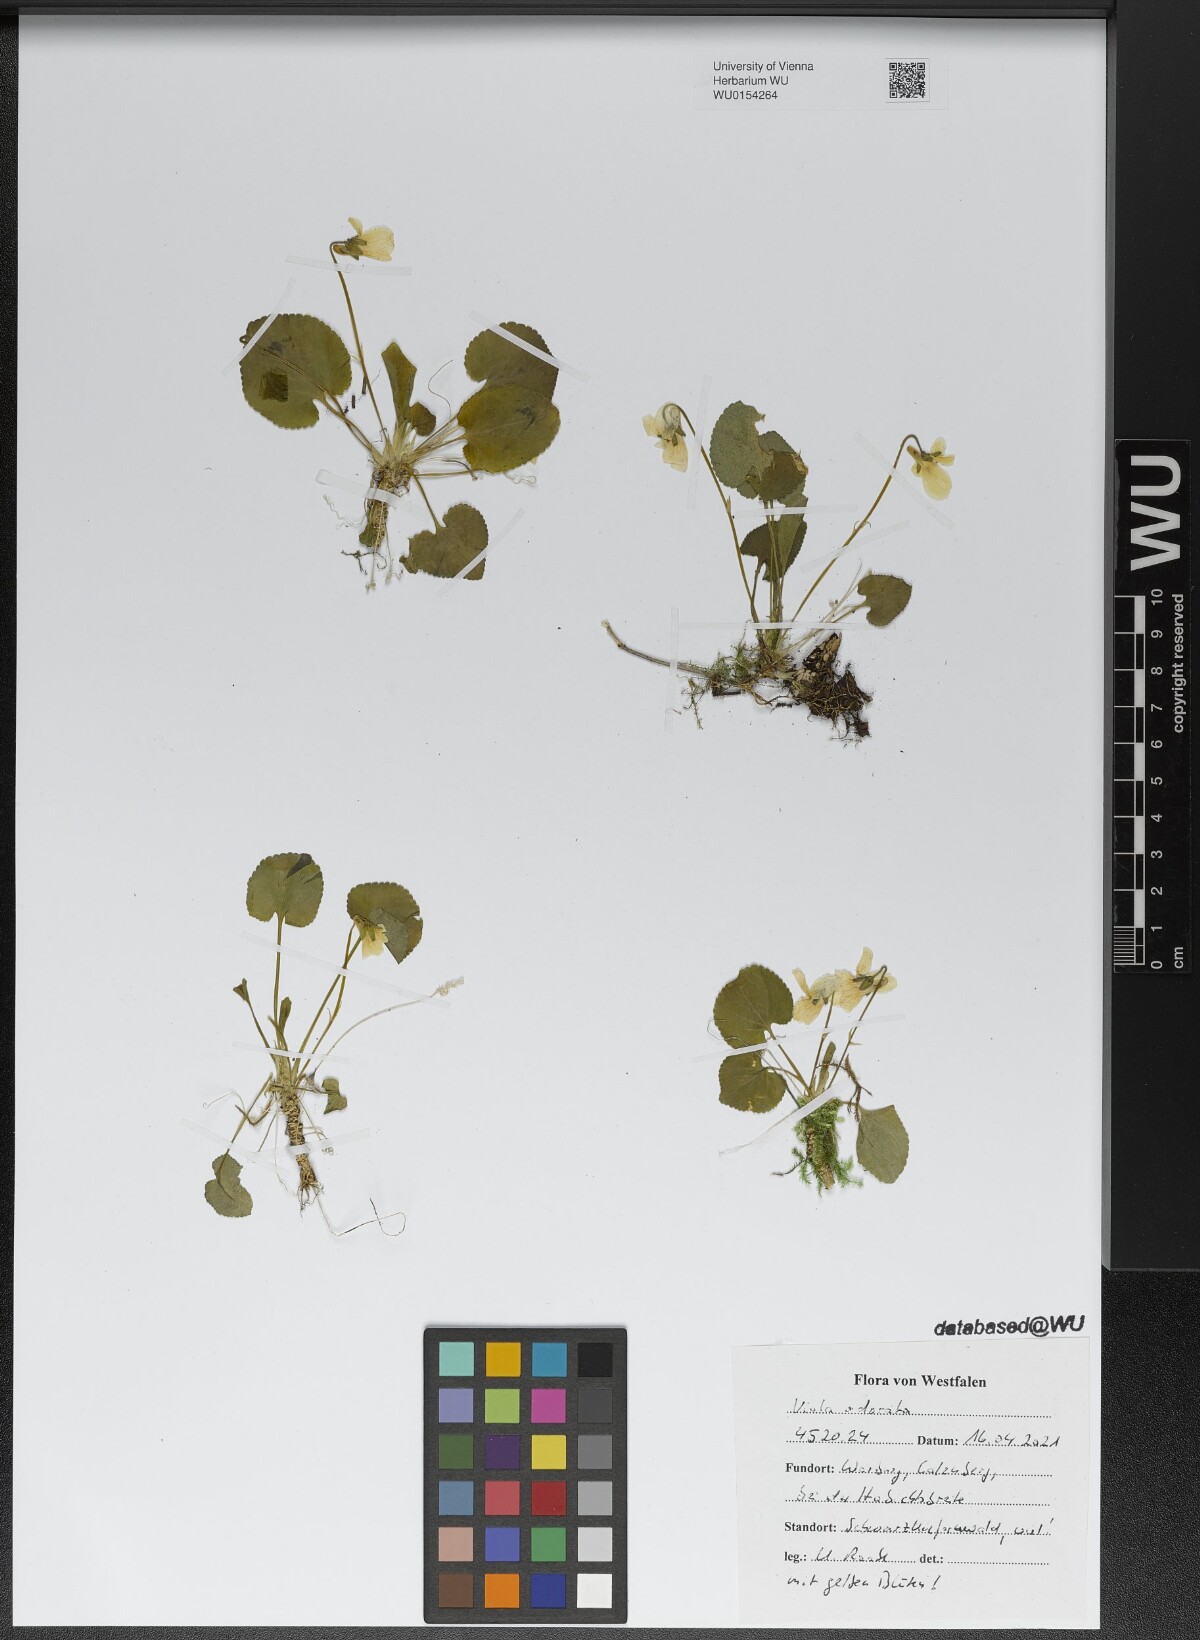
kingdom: Plantae
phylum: Tracheophyta
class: Magnoliopsida
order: Malpighiales
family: Violaceae
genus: Viola
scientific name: Viola odorata
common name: Sweet violet
